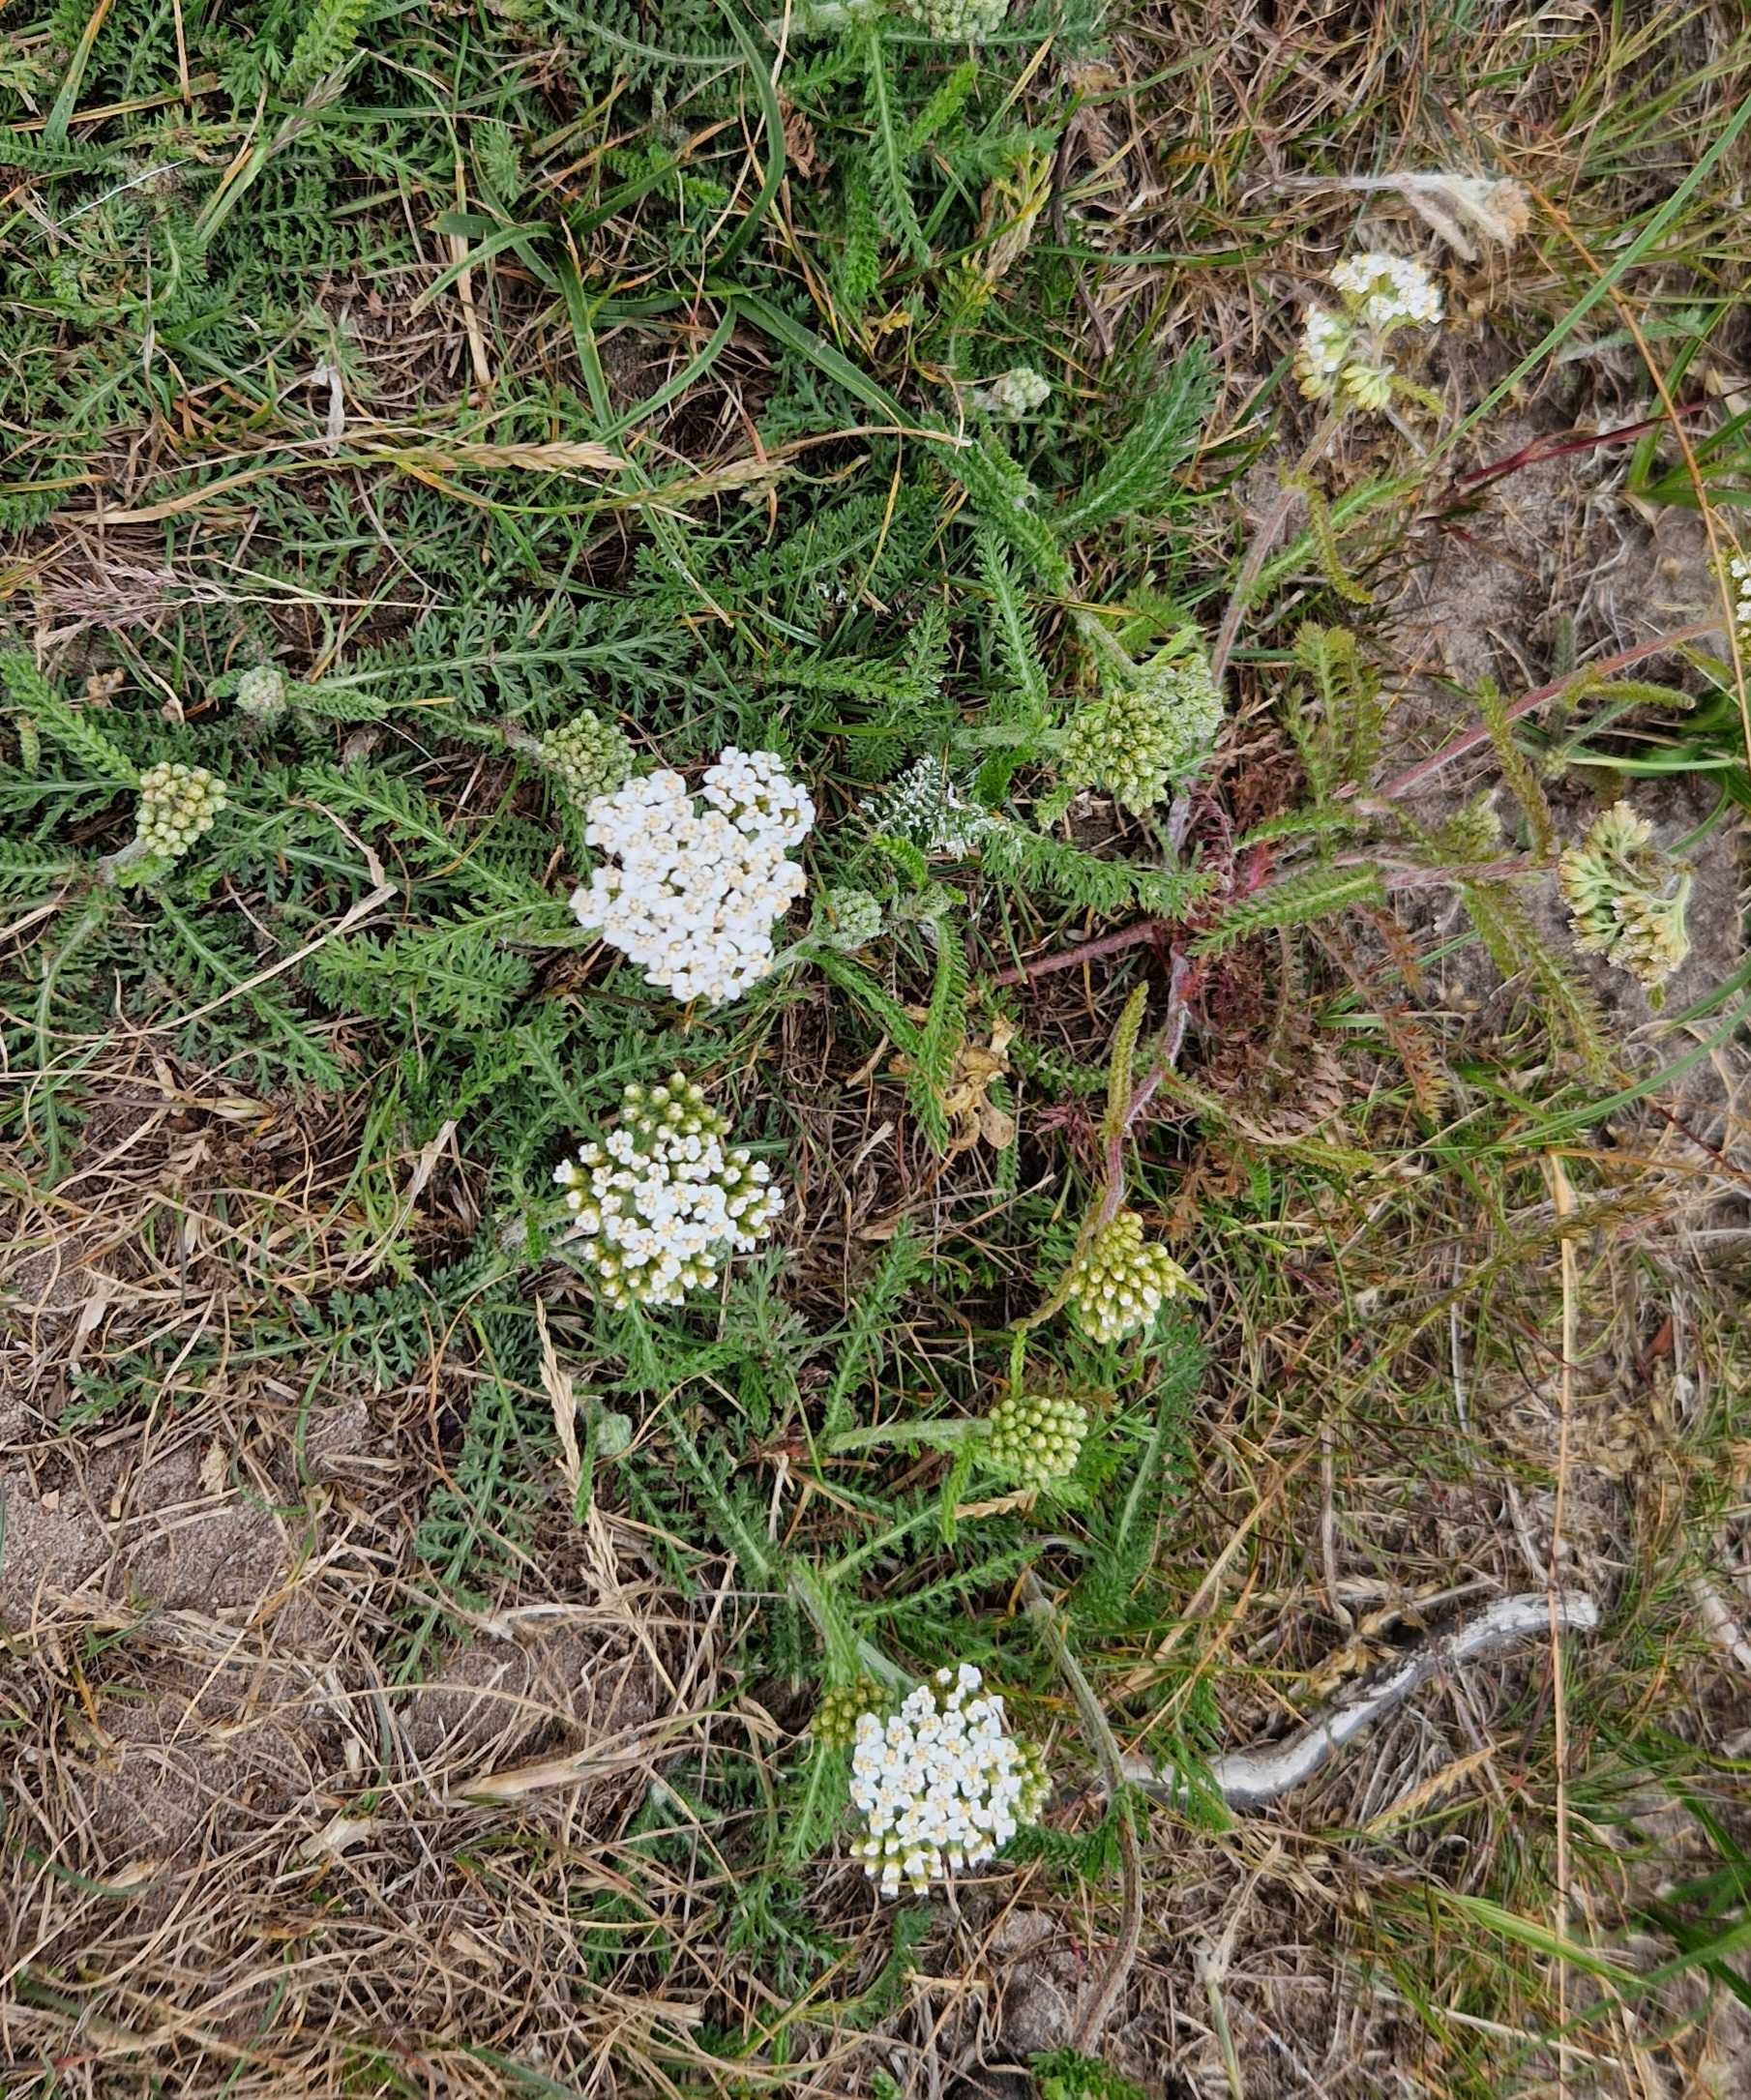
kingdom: Plantae
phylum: Tracheophyta
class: Magnoliopsida
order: Asterales
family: Asteraceae
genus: Achillea
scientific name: Achillea millefolium
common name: Almindelig røllike
